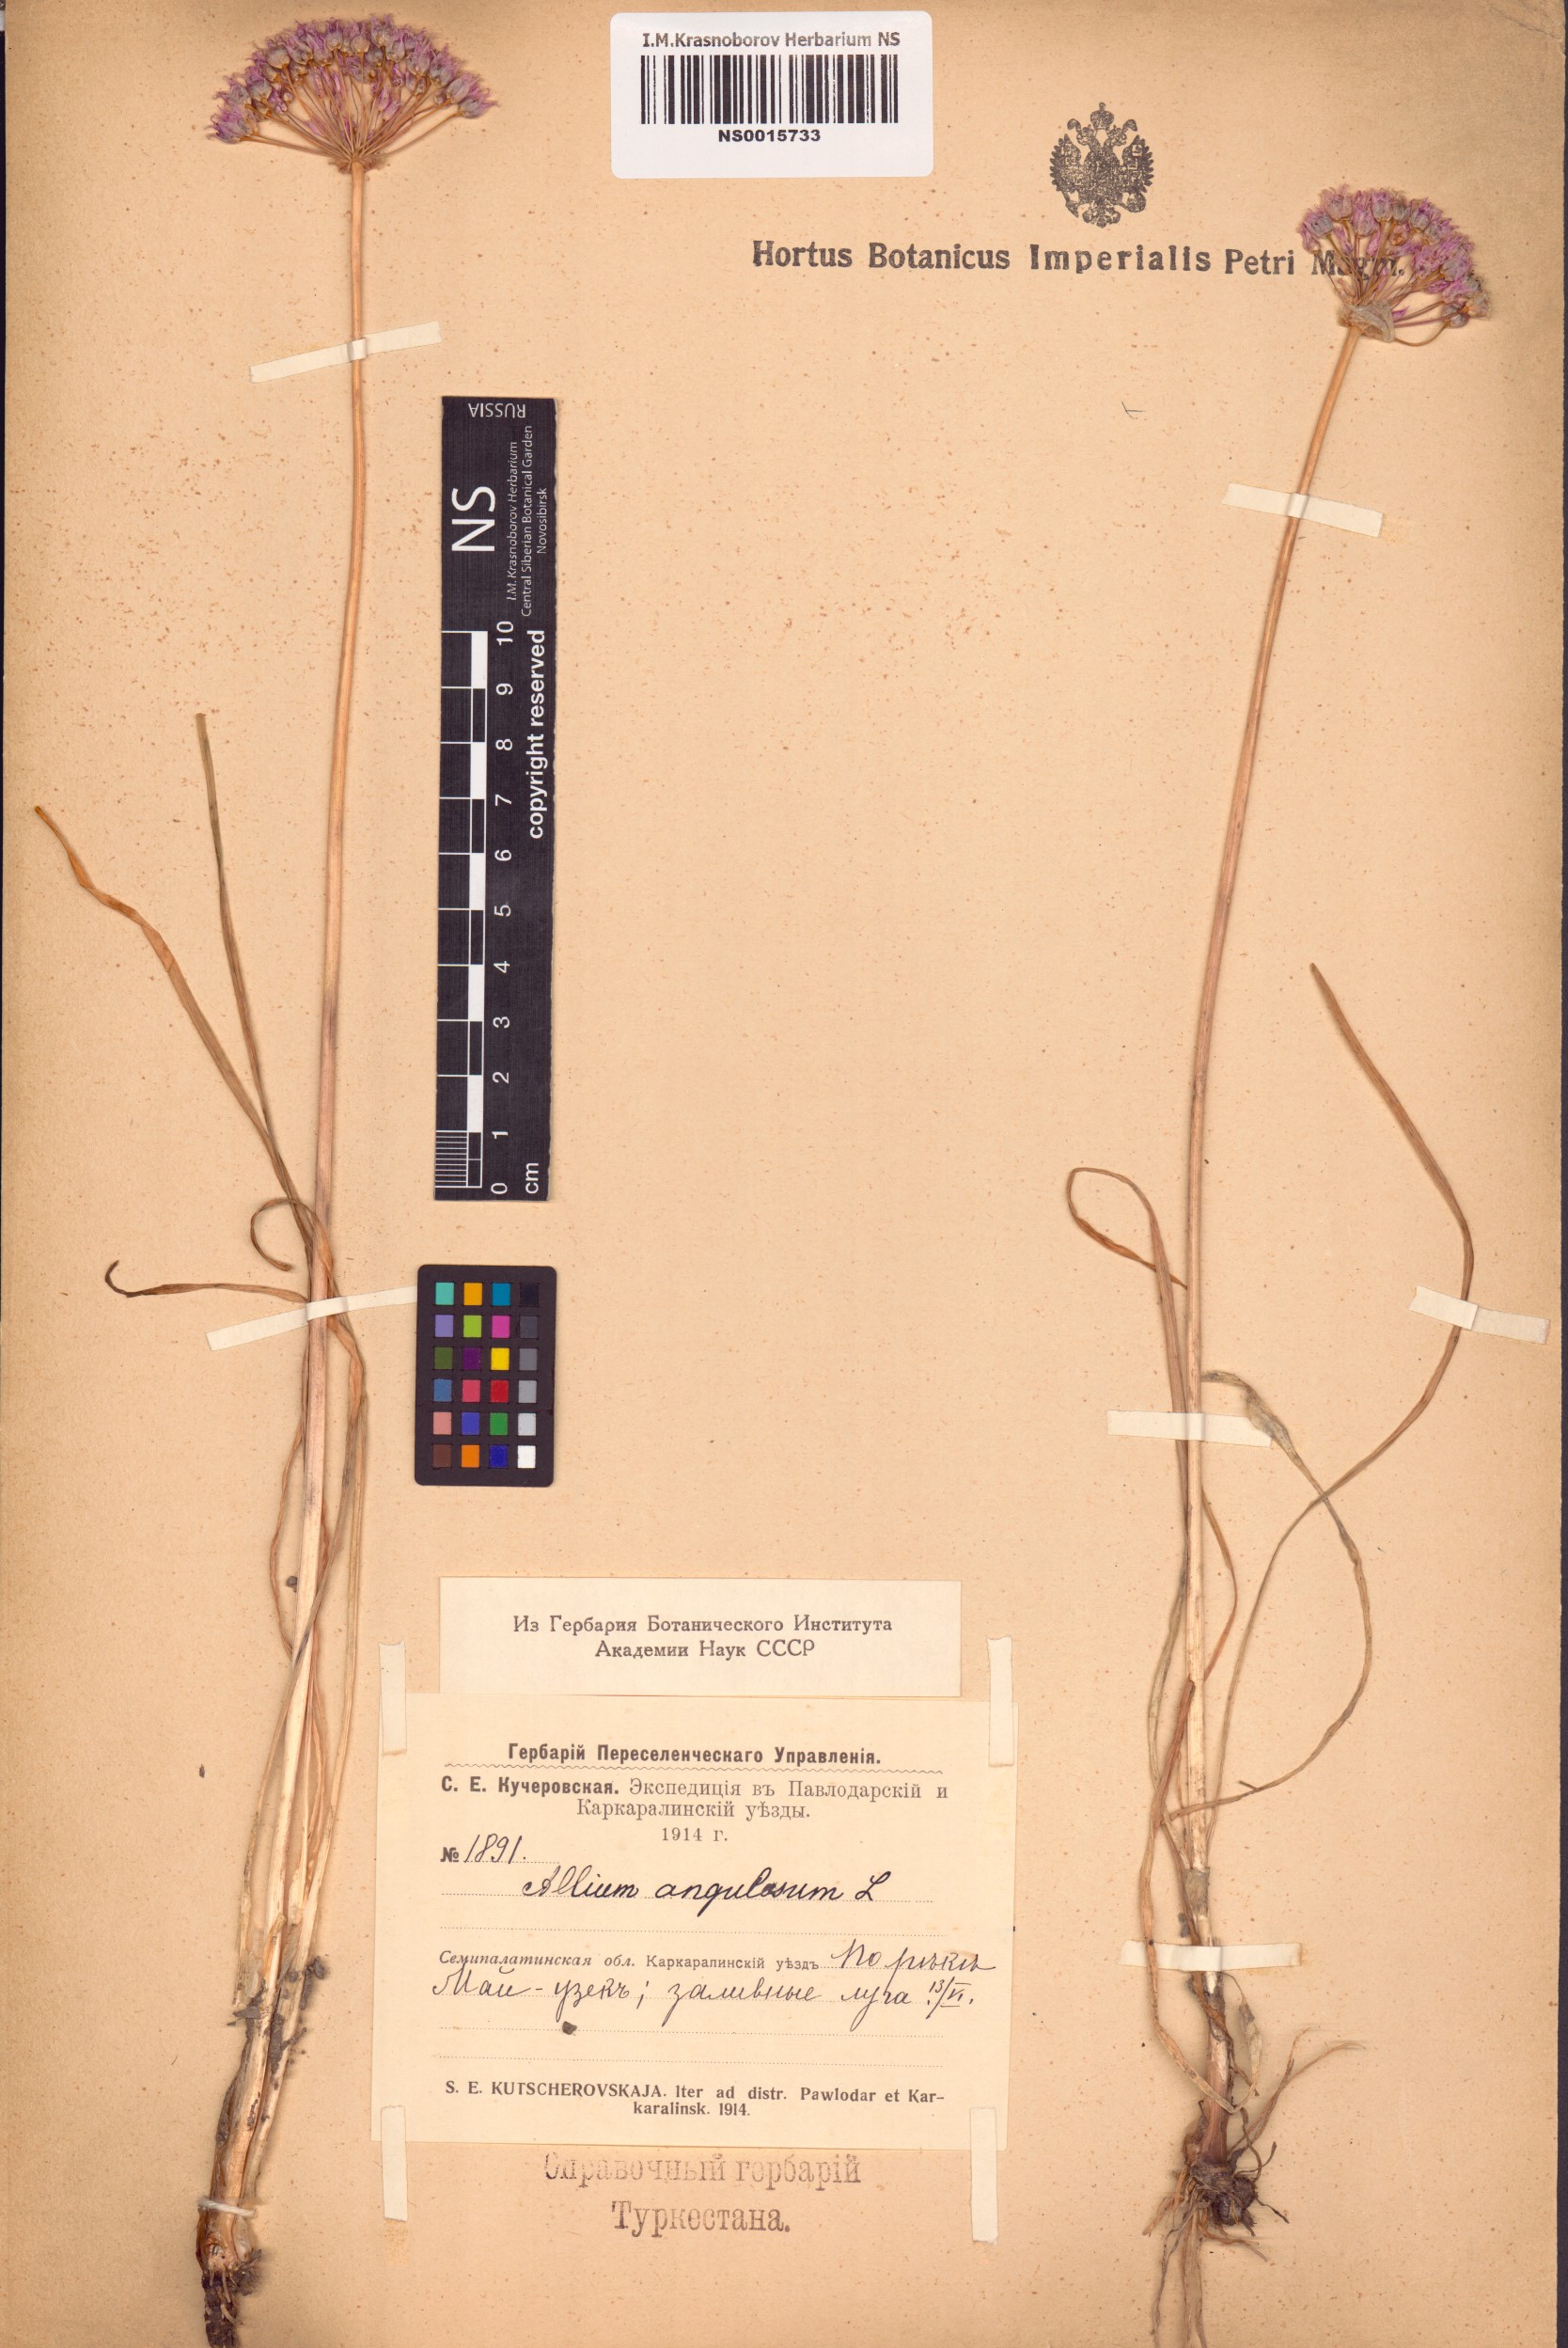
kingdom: Plantae
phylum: Tracheophyta
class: Liliopsida
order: Asparagales
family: Amaryllidaceae
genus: Allium
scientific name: Allium angulosum
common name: Mouse garlic
